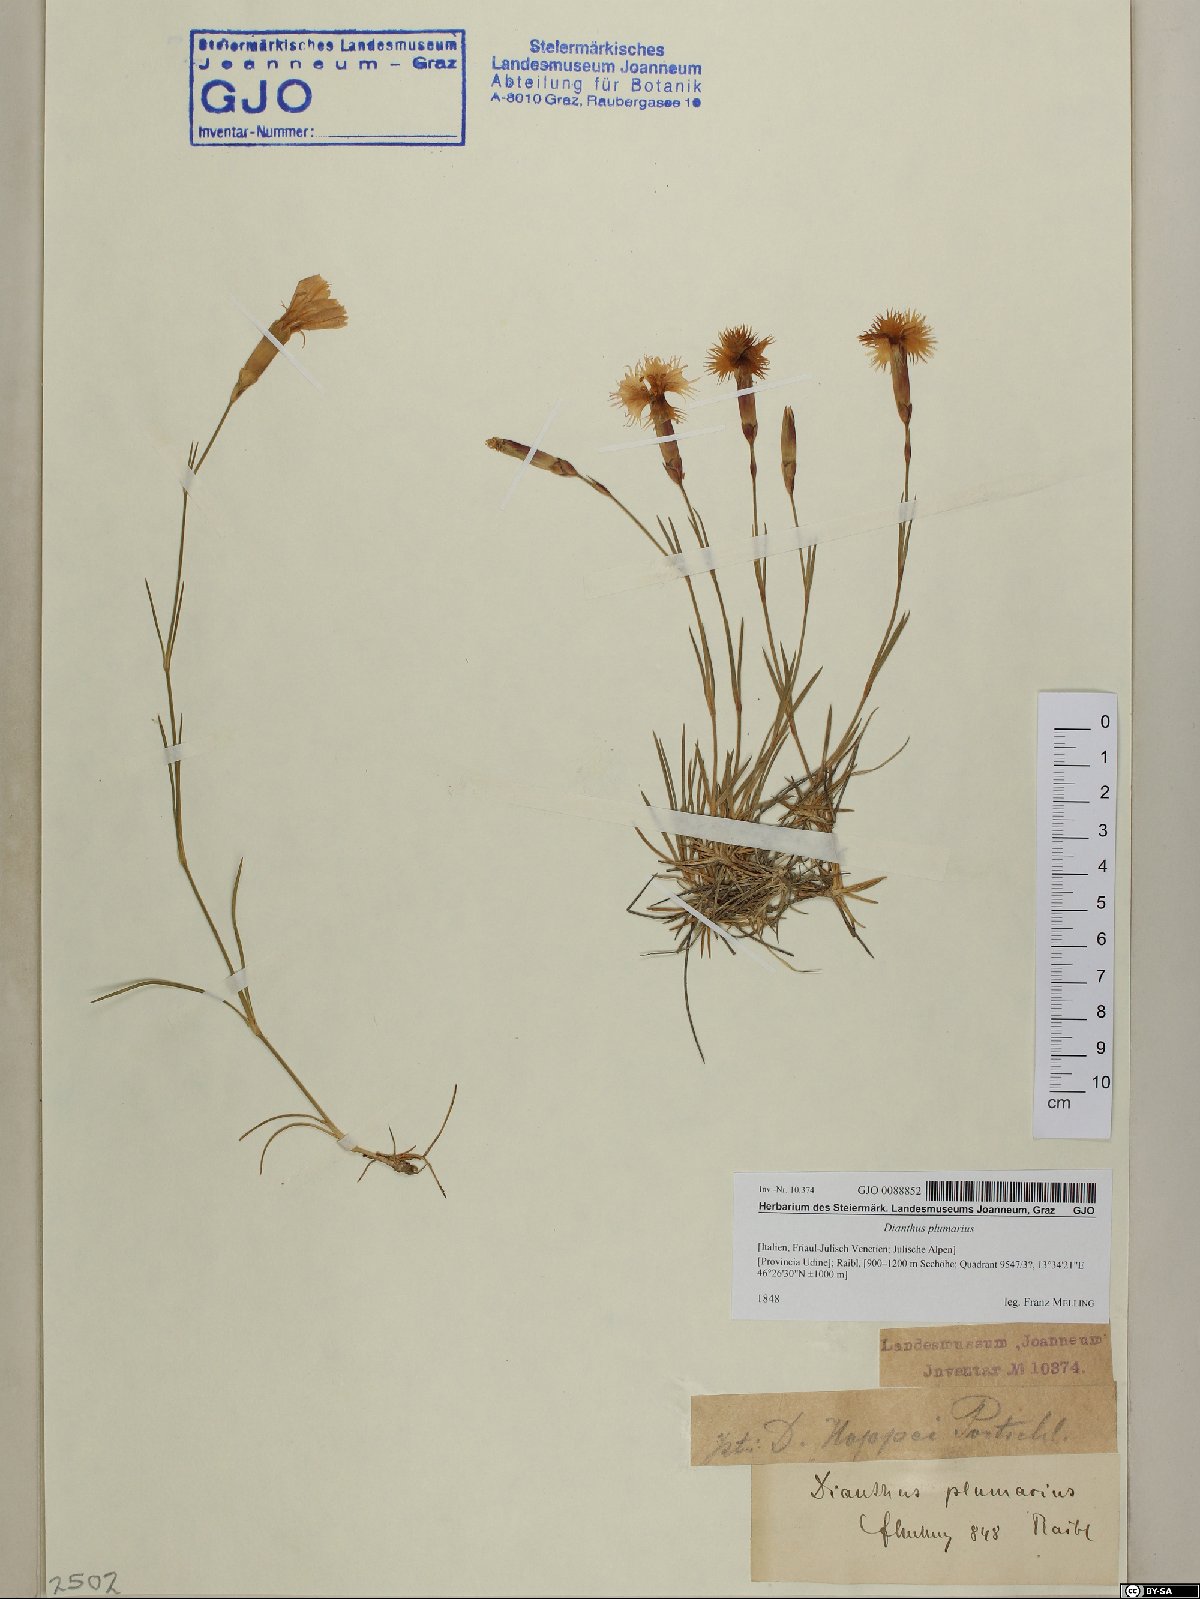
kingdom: Plantae
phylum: Tracheophyta
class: Magnoliopsida
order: Caryophyllales
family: Caryophyllaceae
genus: Dianthus
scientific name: Dianthus plumarius
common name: Pink
